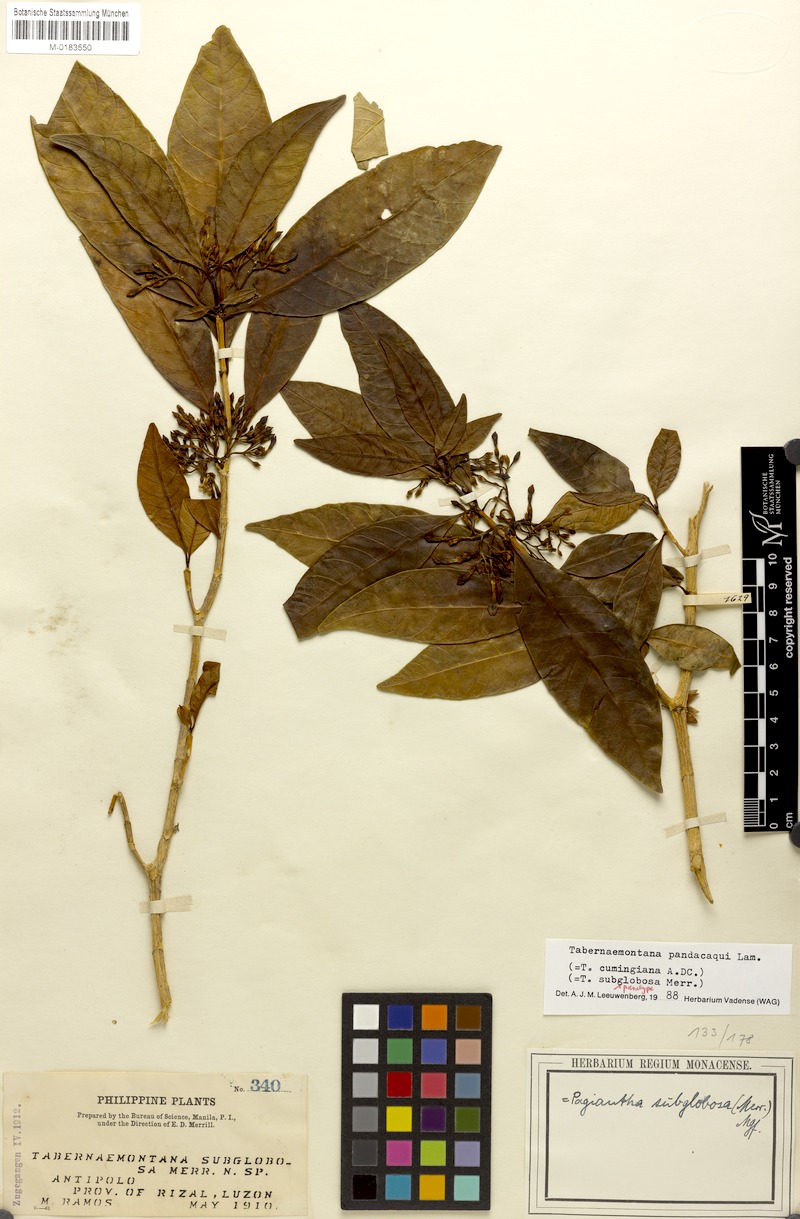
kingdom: Plantae
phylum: Tracheophyta
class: Magnoliopsida
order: Gentianales
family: Apocynaceae
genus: Tabernaemontana
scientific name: Tabernaemontana pandacaqui
